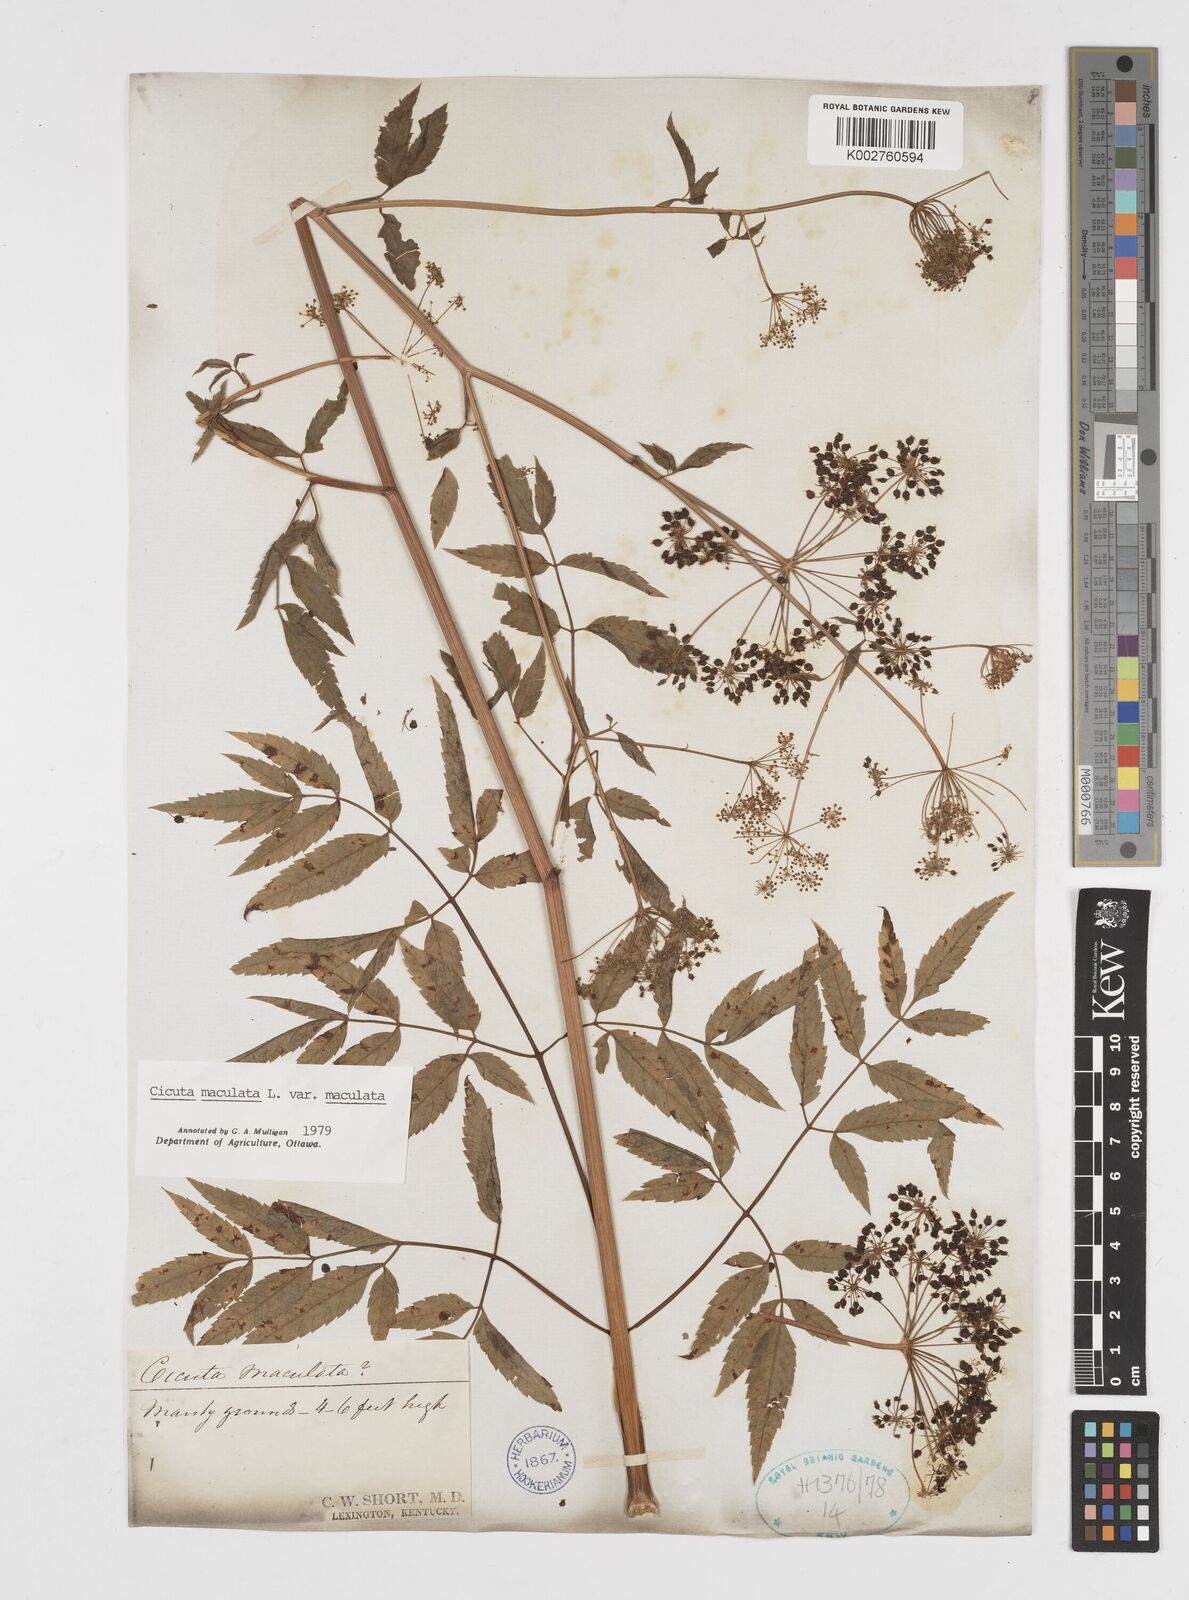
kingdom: Plantae
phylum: Tracheophyta
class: Magnoliopsida
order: Apiales
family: Apiaceae
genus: Cicuta
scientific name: Cicuta maculata
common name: Spotted cowbane
